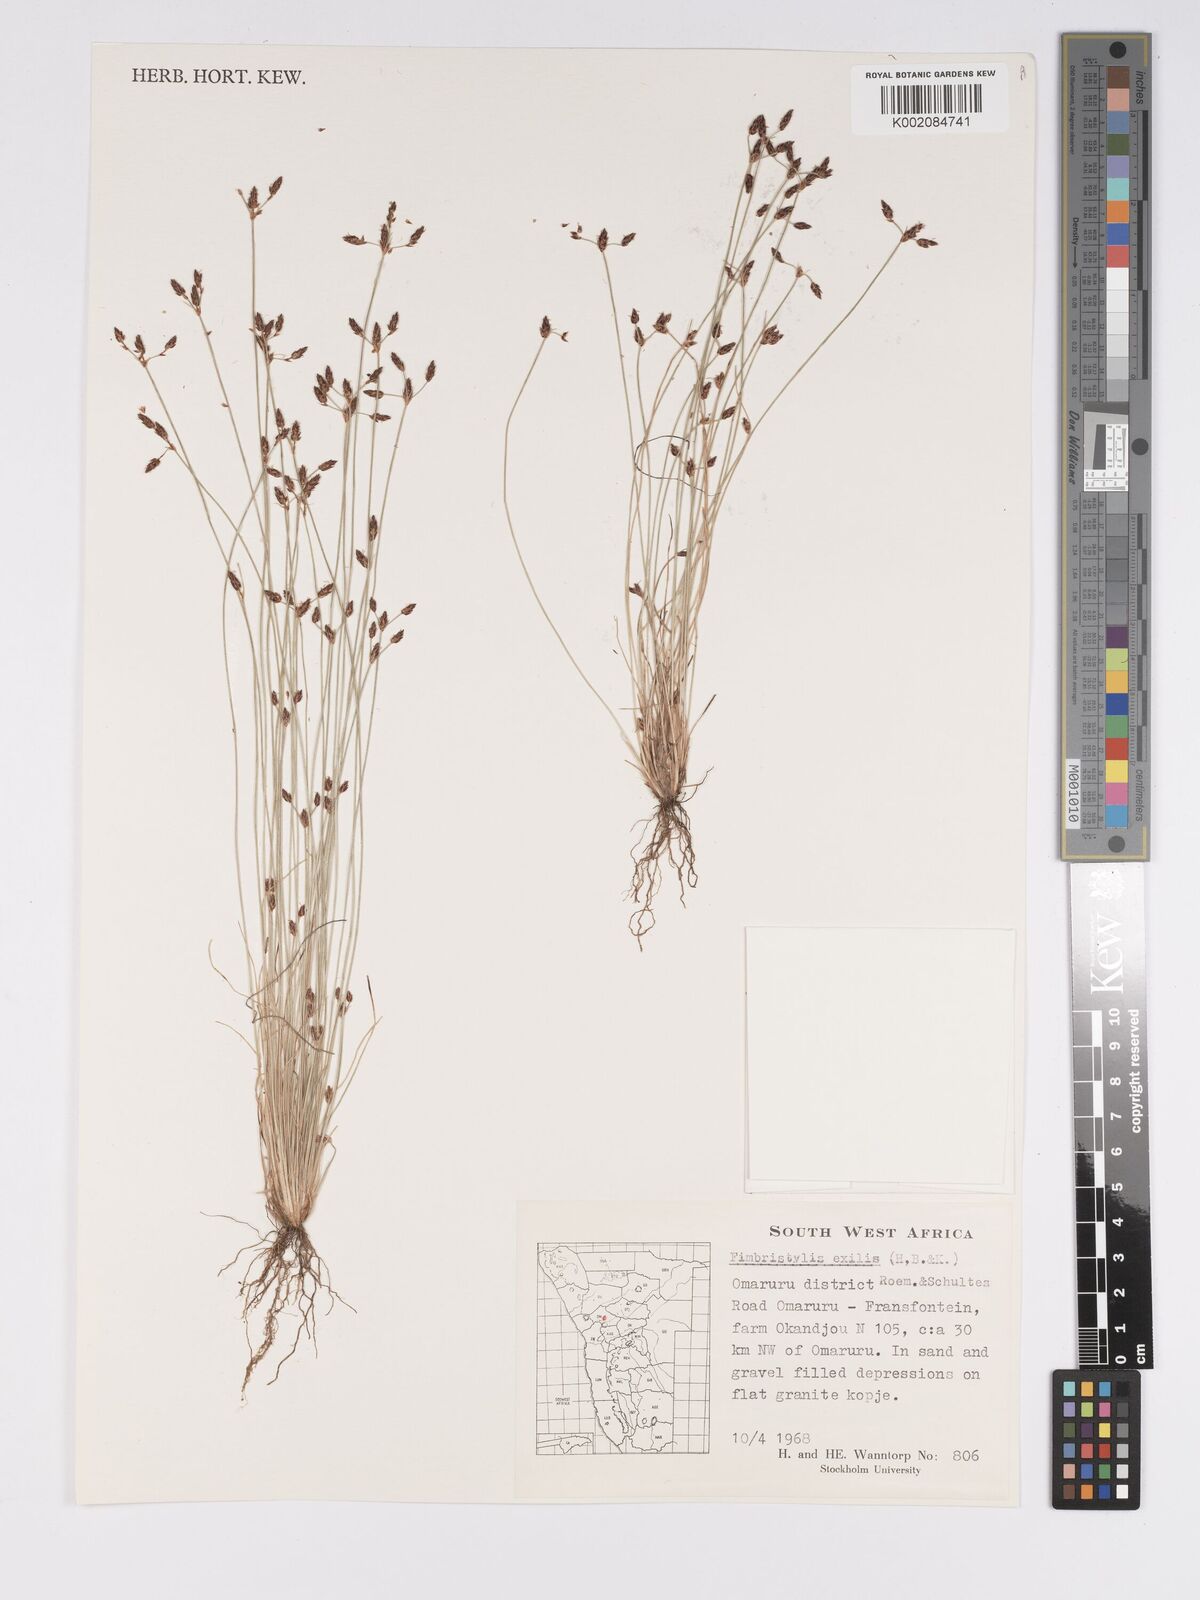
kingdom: Plantae
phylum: Tracheophyta
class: Liliopsida
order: Poales
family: Cyperaceae
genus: Bulbostylis
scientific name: Bulbostylis hispidula
